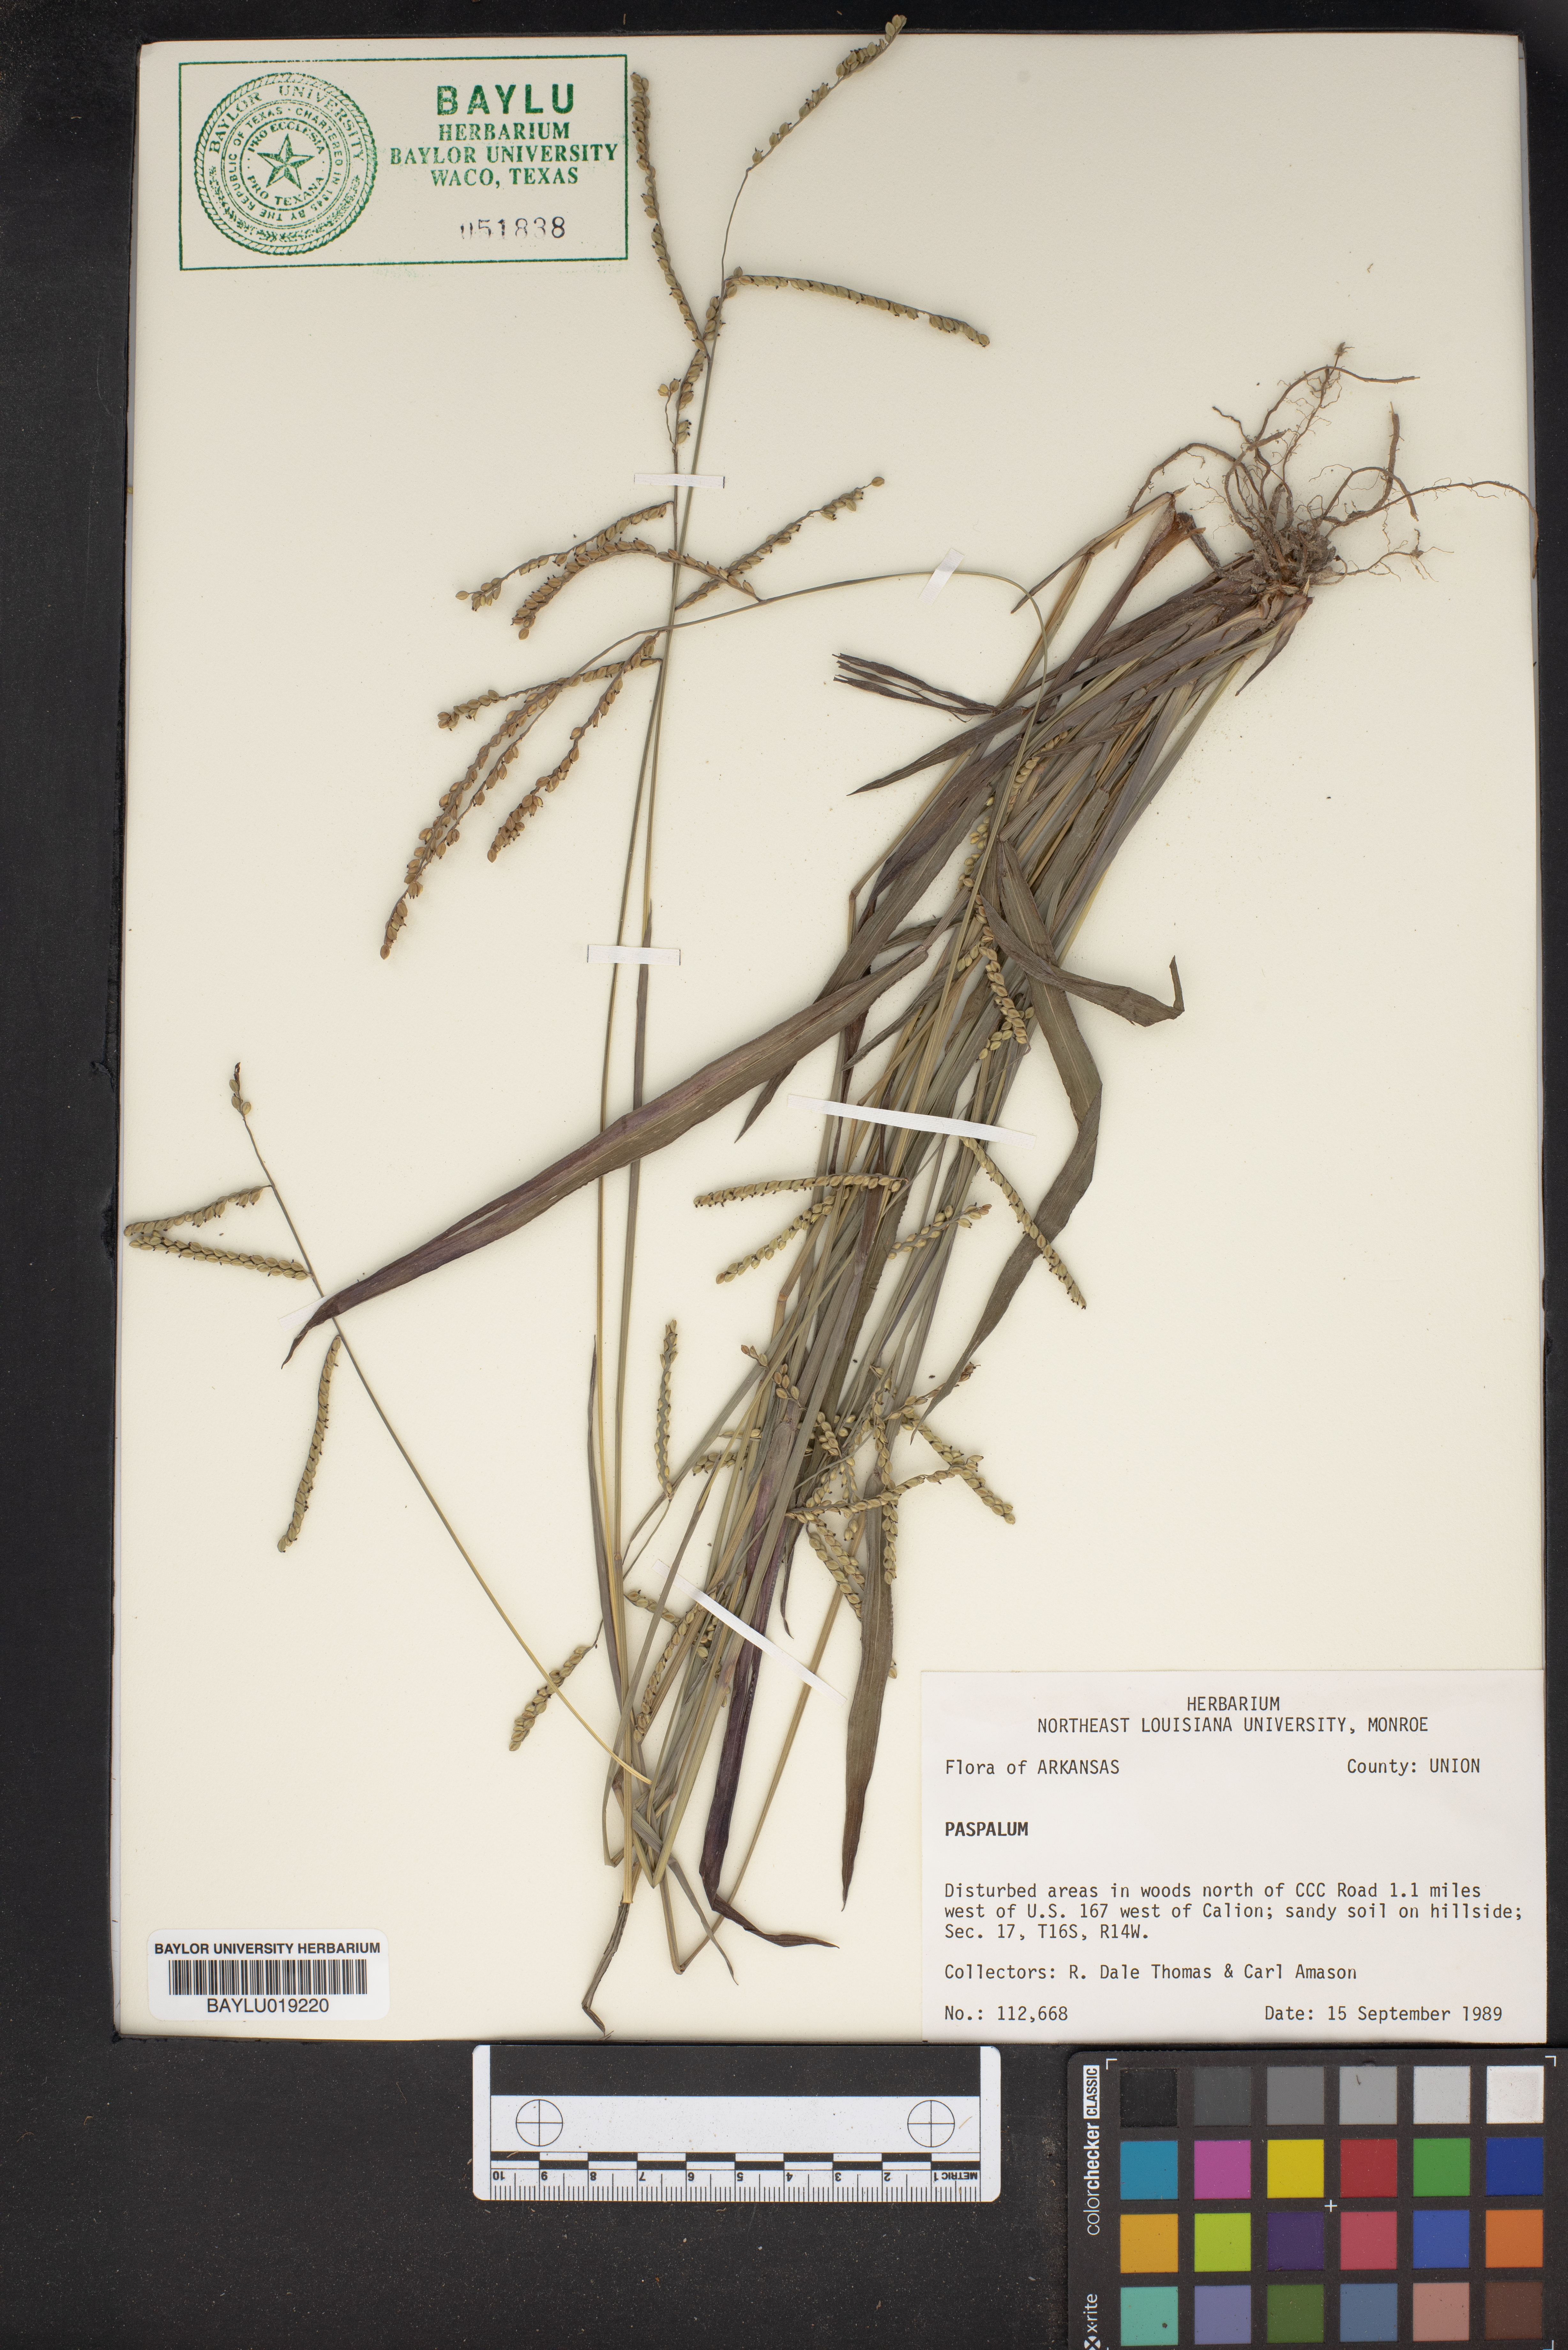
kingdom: Plantae
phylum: Tracheophyta
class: Liliopsida
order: Poales
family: Poaceae
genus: Paspalum
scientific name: Paspalum
